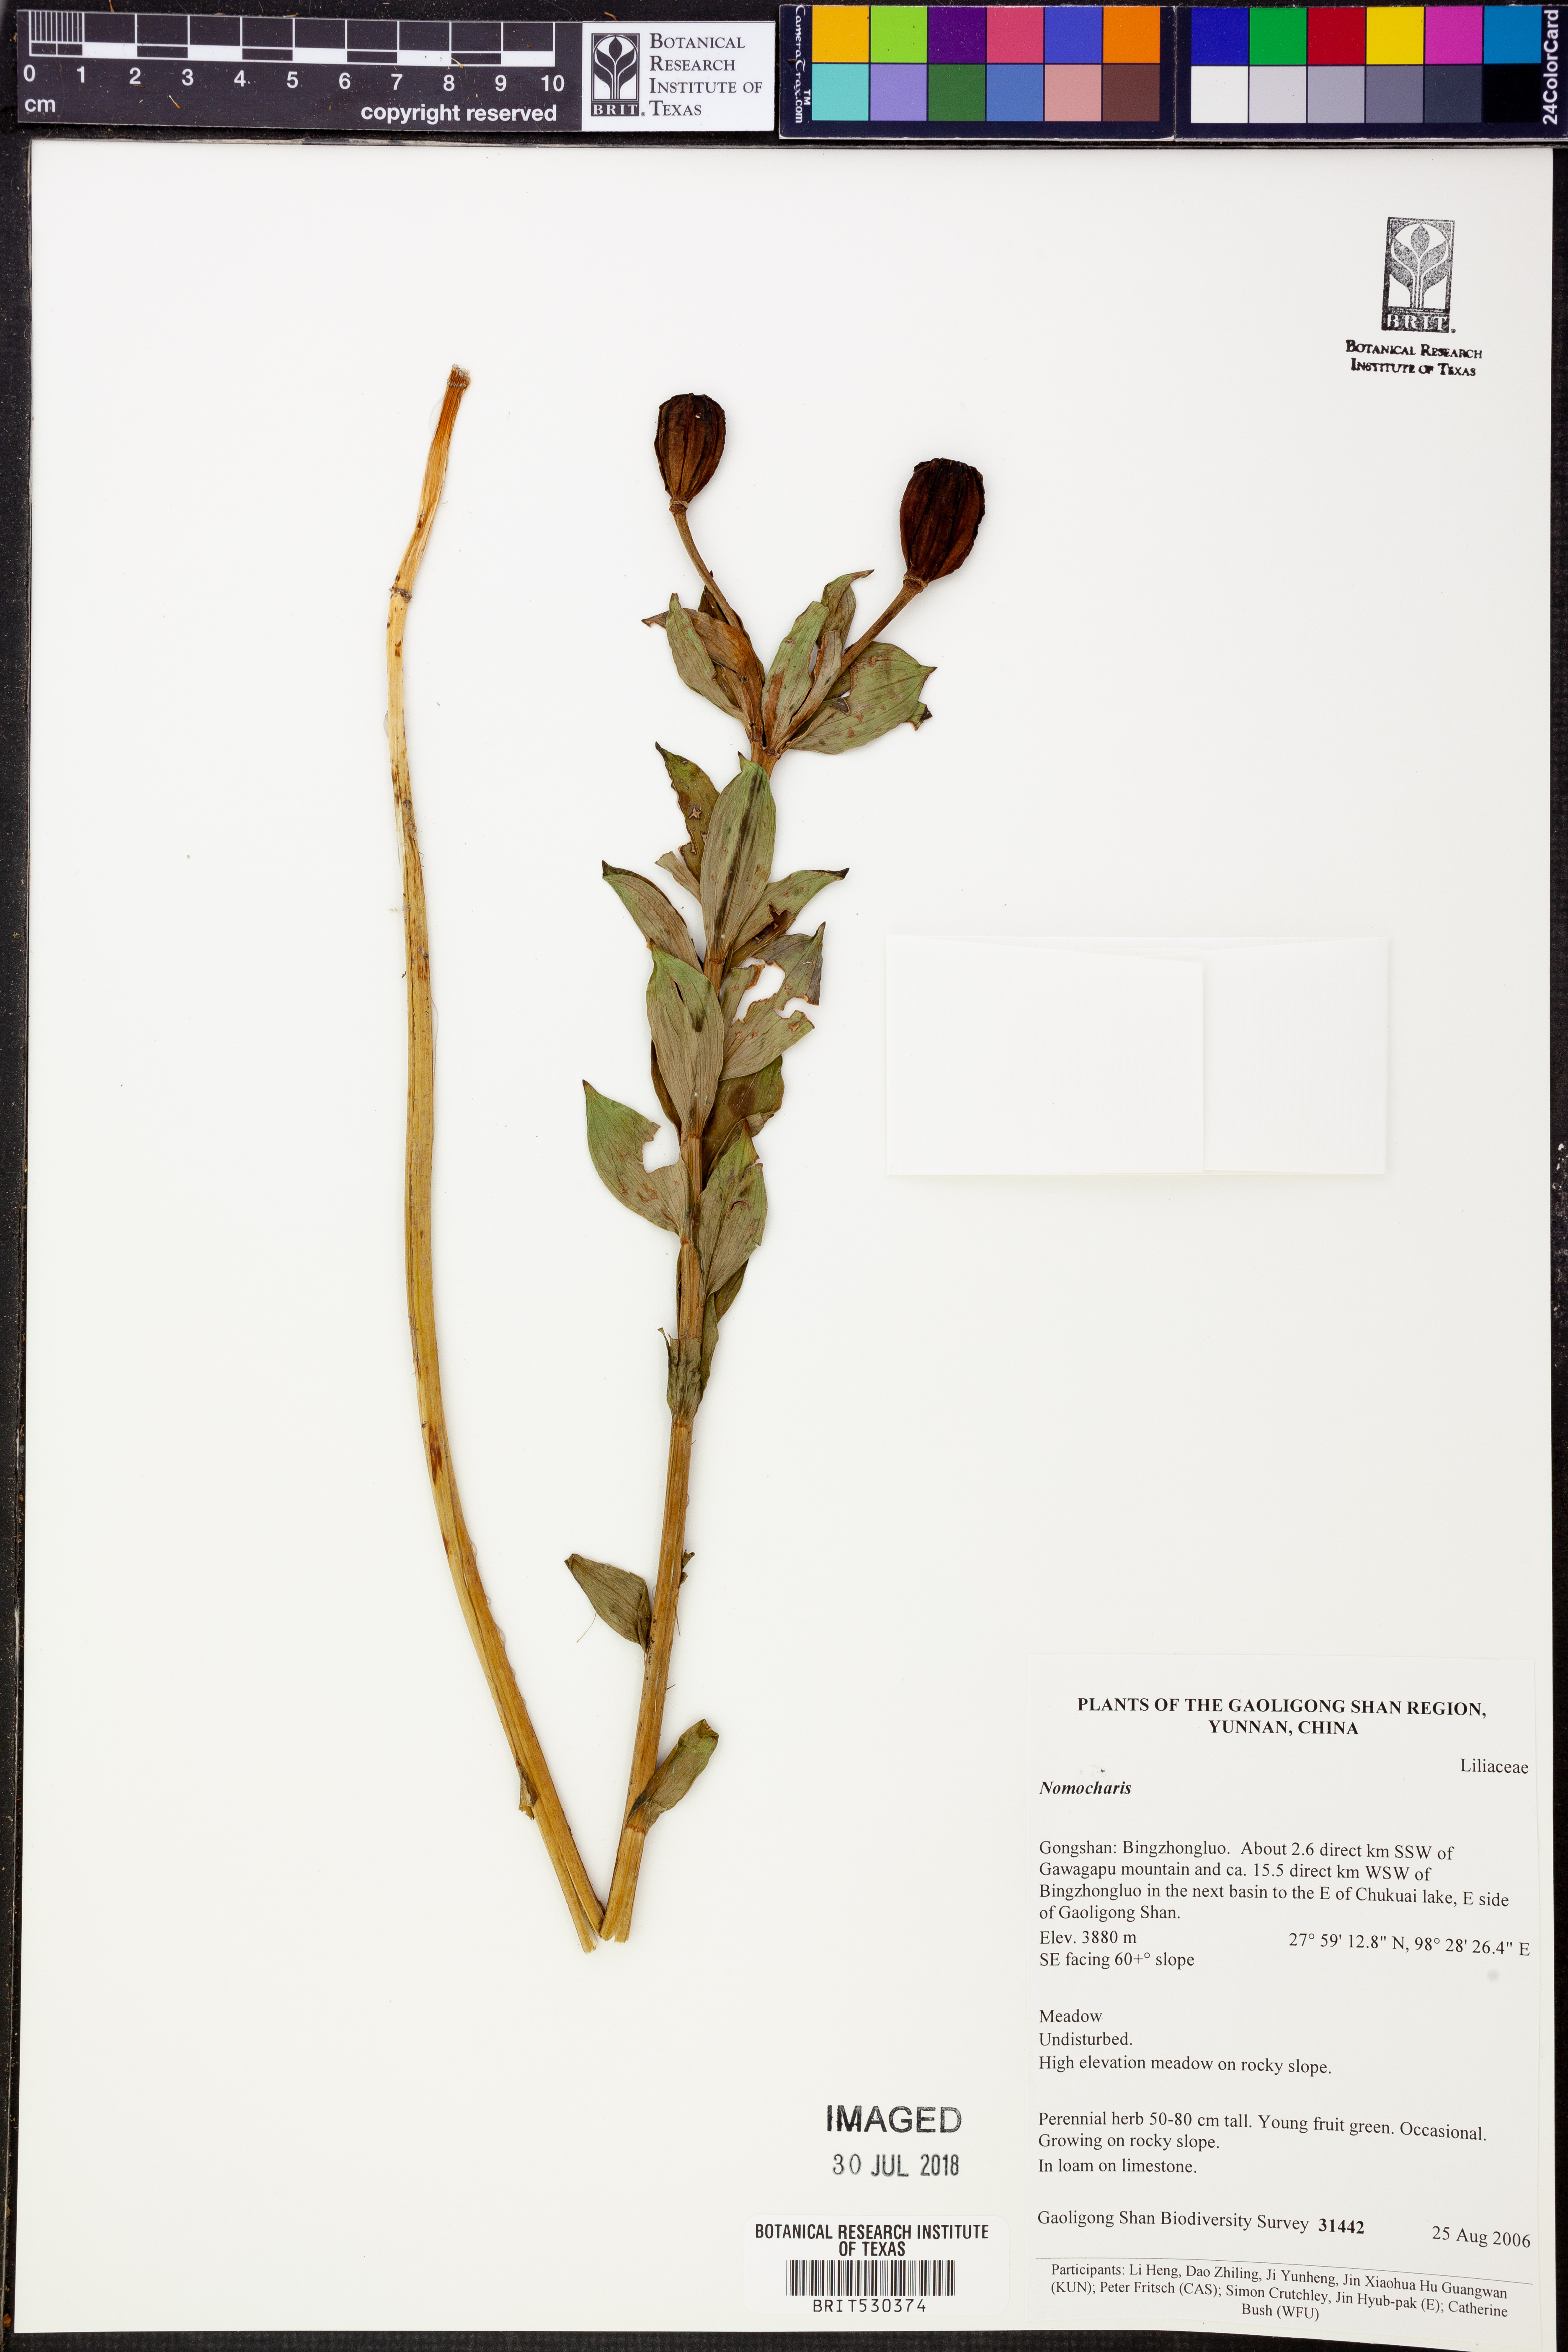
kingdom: Plantae
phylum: Tracheophyta
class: Liliopsida
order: Liliales
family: Liliaceae
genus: Lilium
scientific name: Lilium
